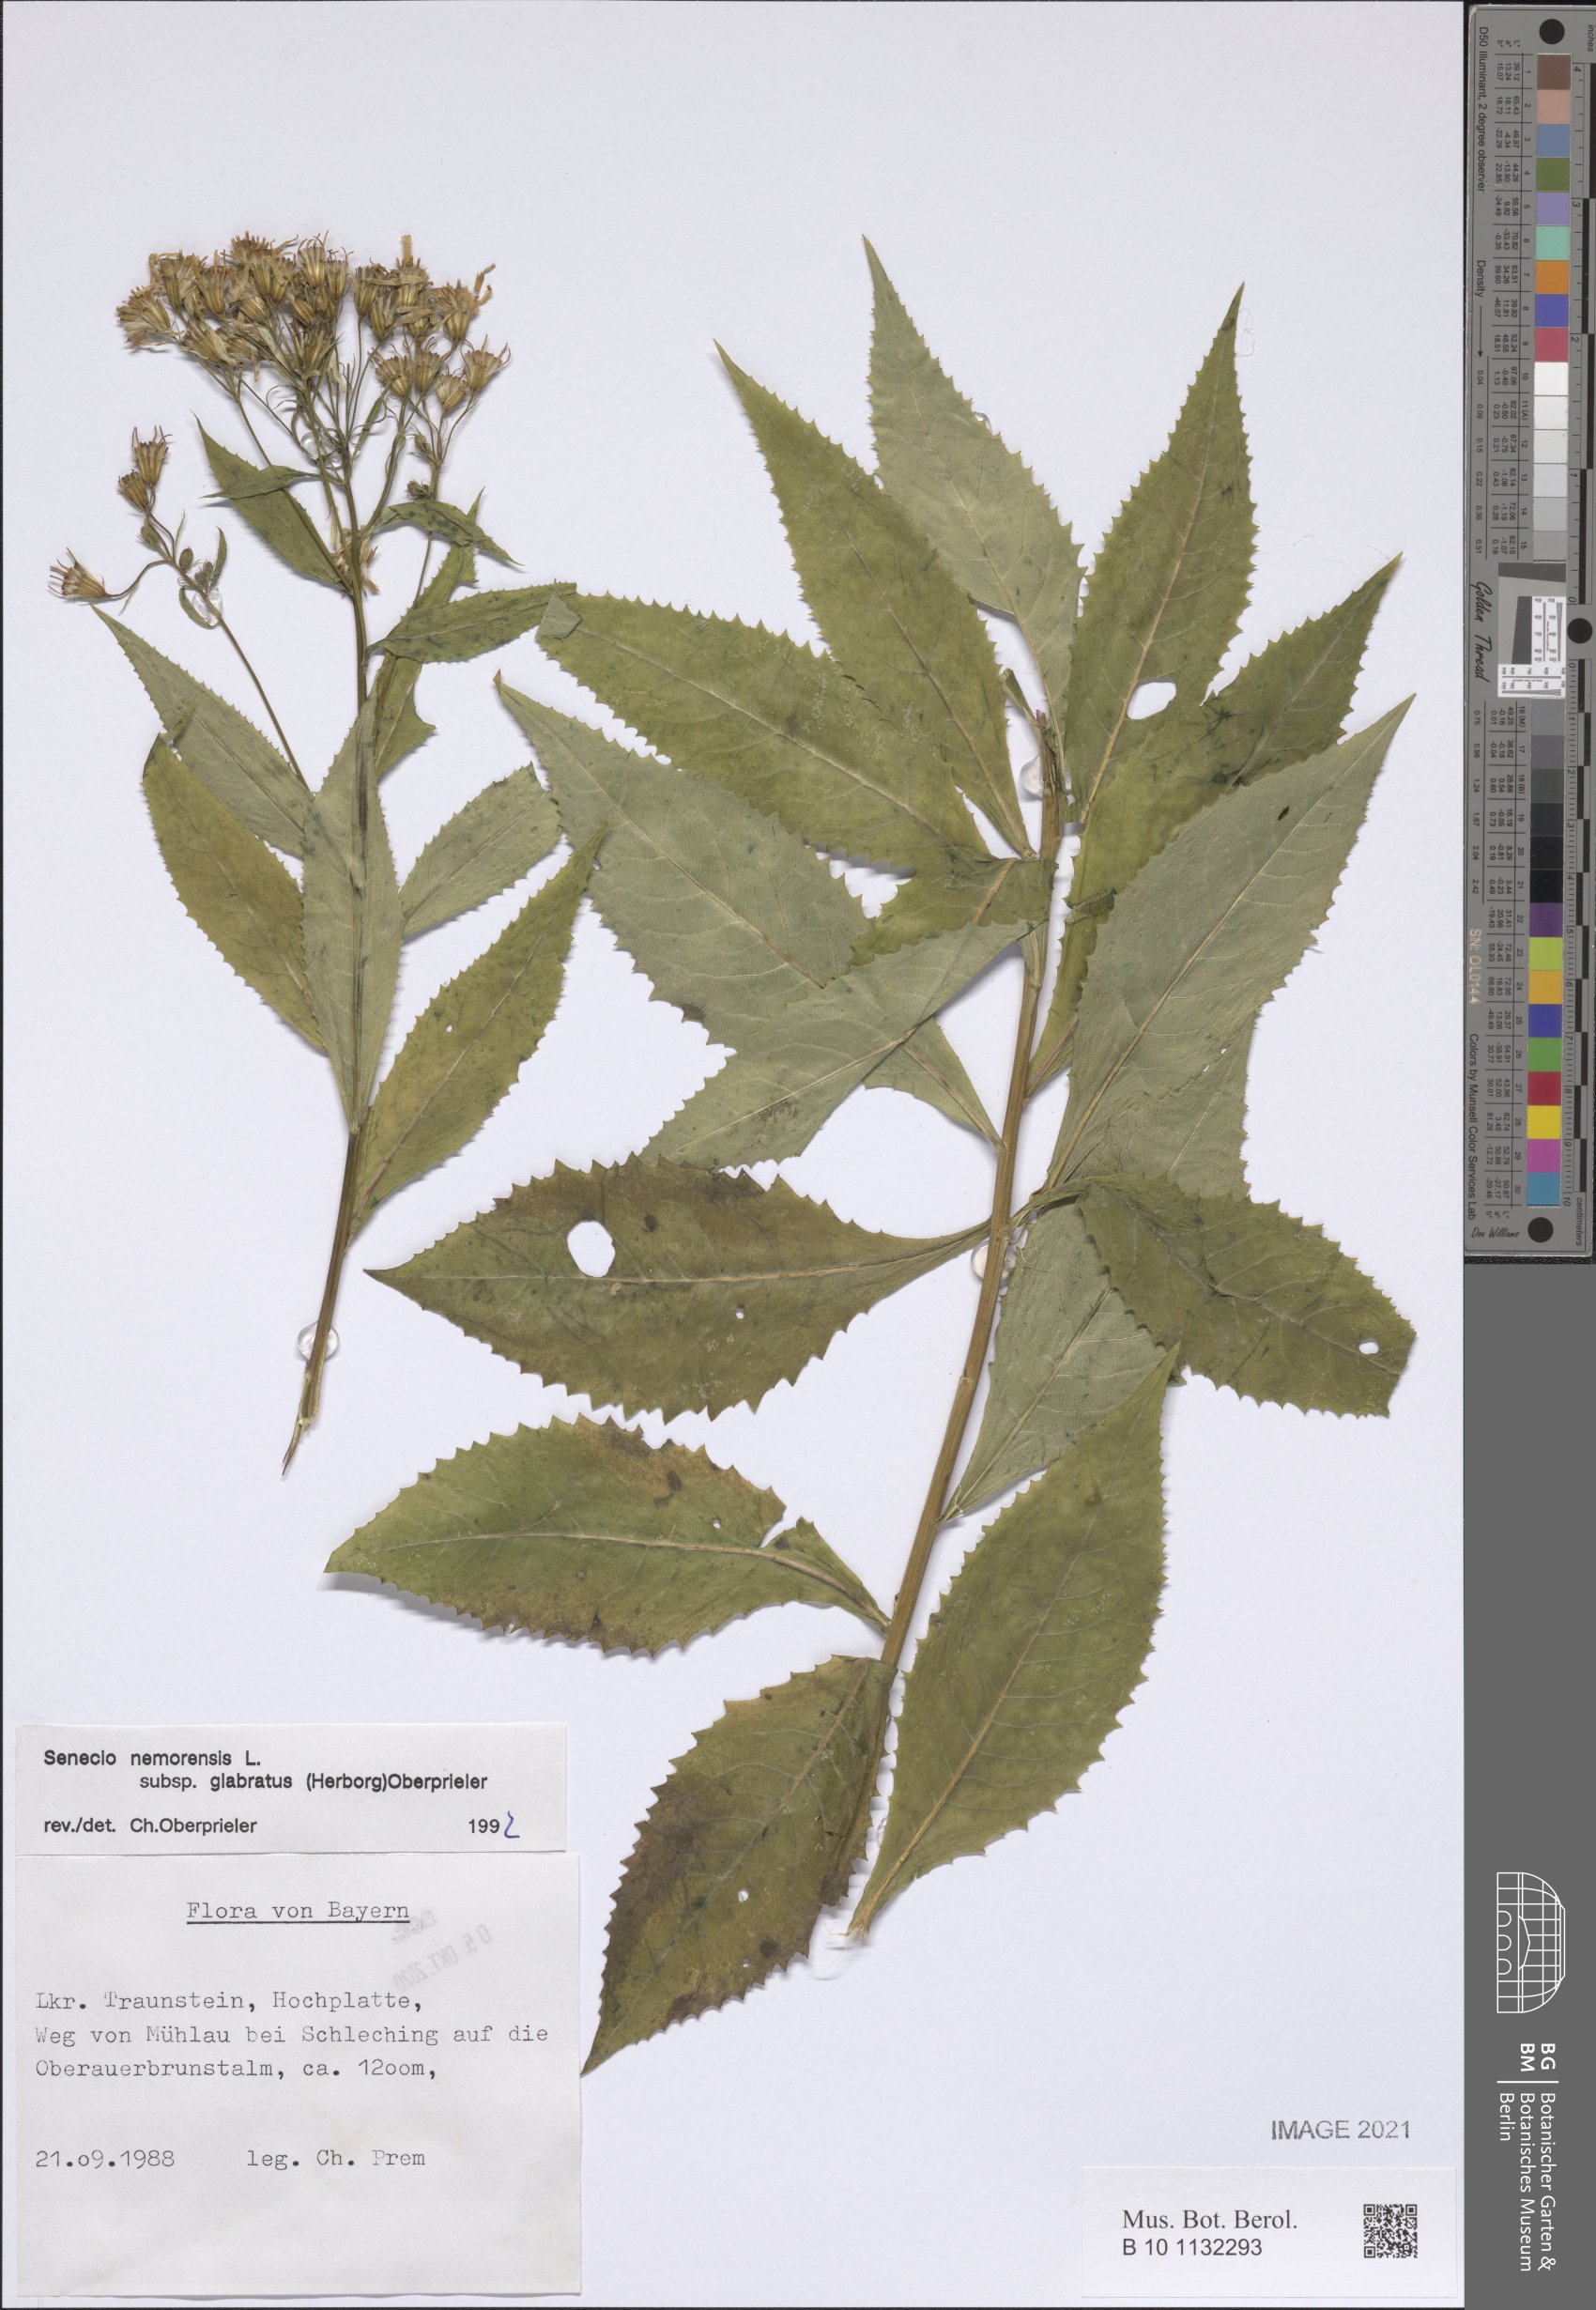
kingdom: Plantae
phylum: Tracheophyta
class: Magnoliopsida
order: Asterales
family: Asteraceae
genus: Senecio
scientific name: Senecio germanicus
